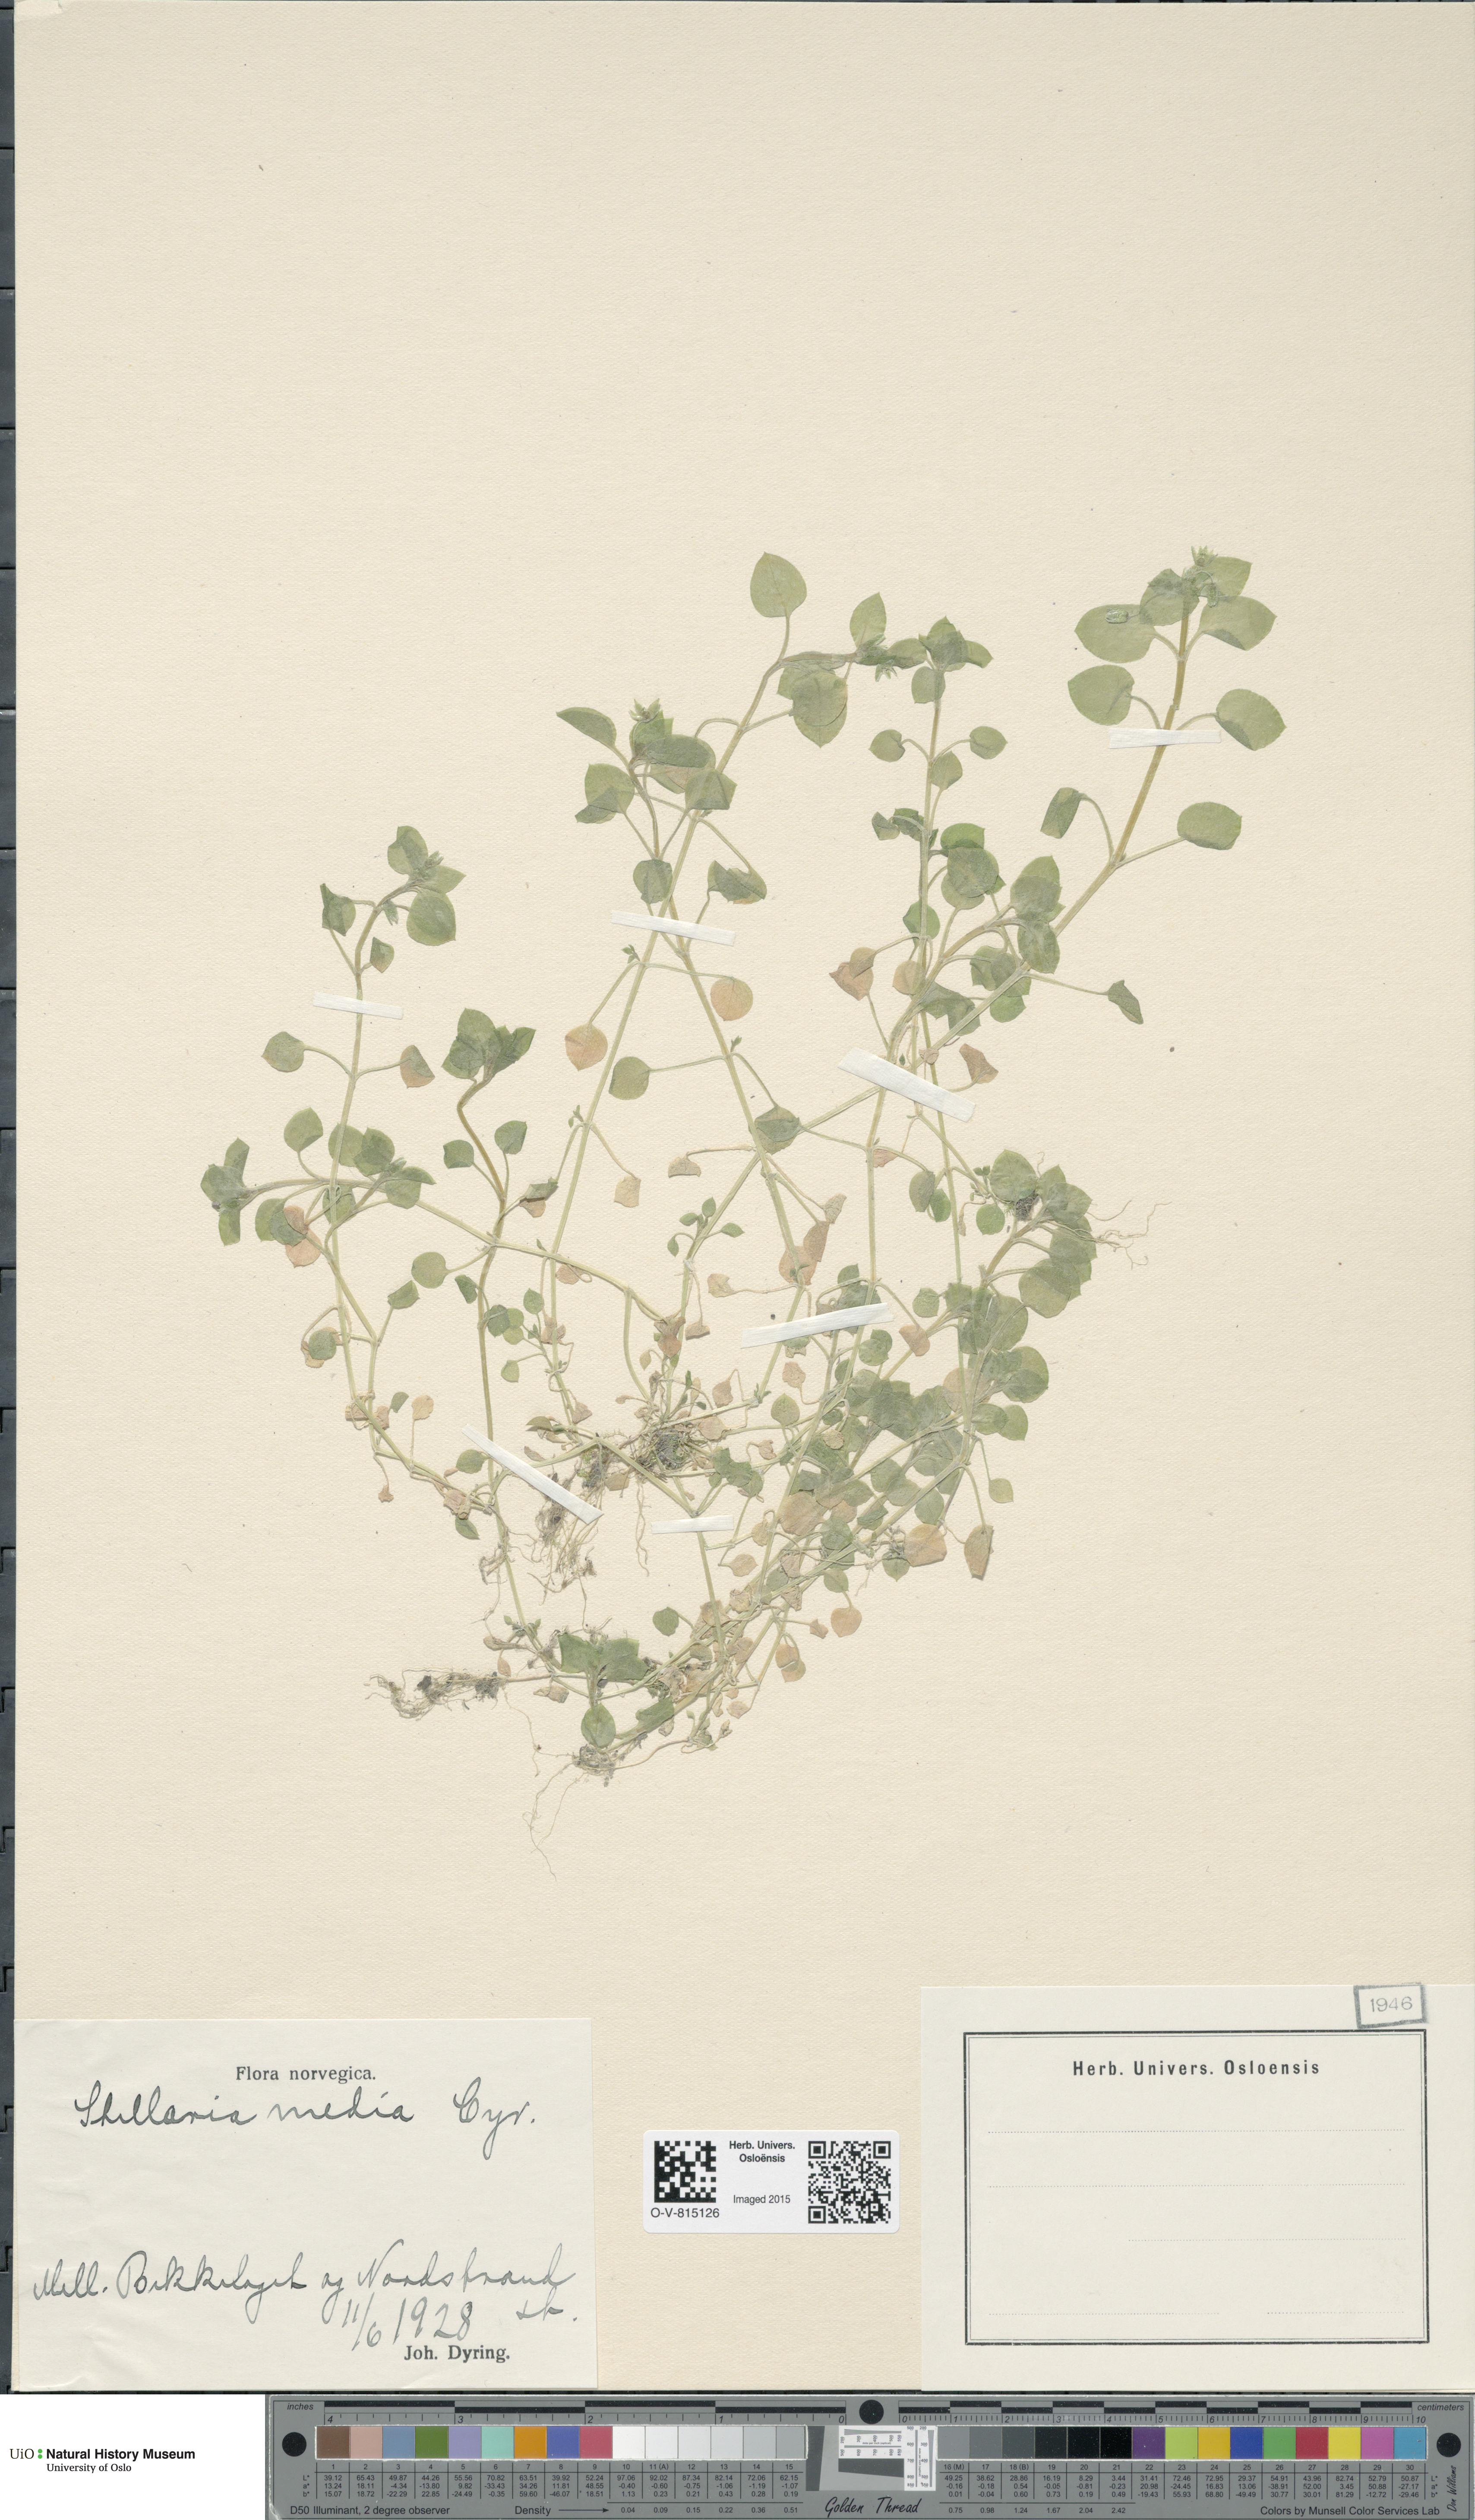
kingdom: Plantae
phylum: Tracheophyta
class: Magnoliopsida
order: Caryophyllales
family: Caryophyllaceae
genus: Stellaria
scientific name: Stellaria media
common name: Common chickweed
